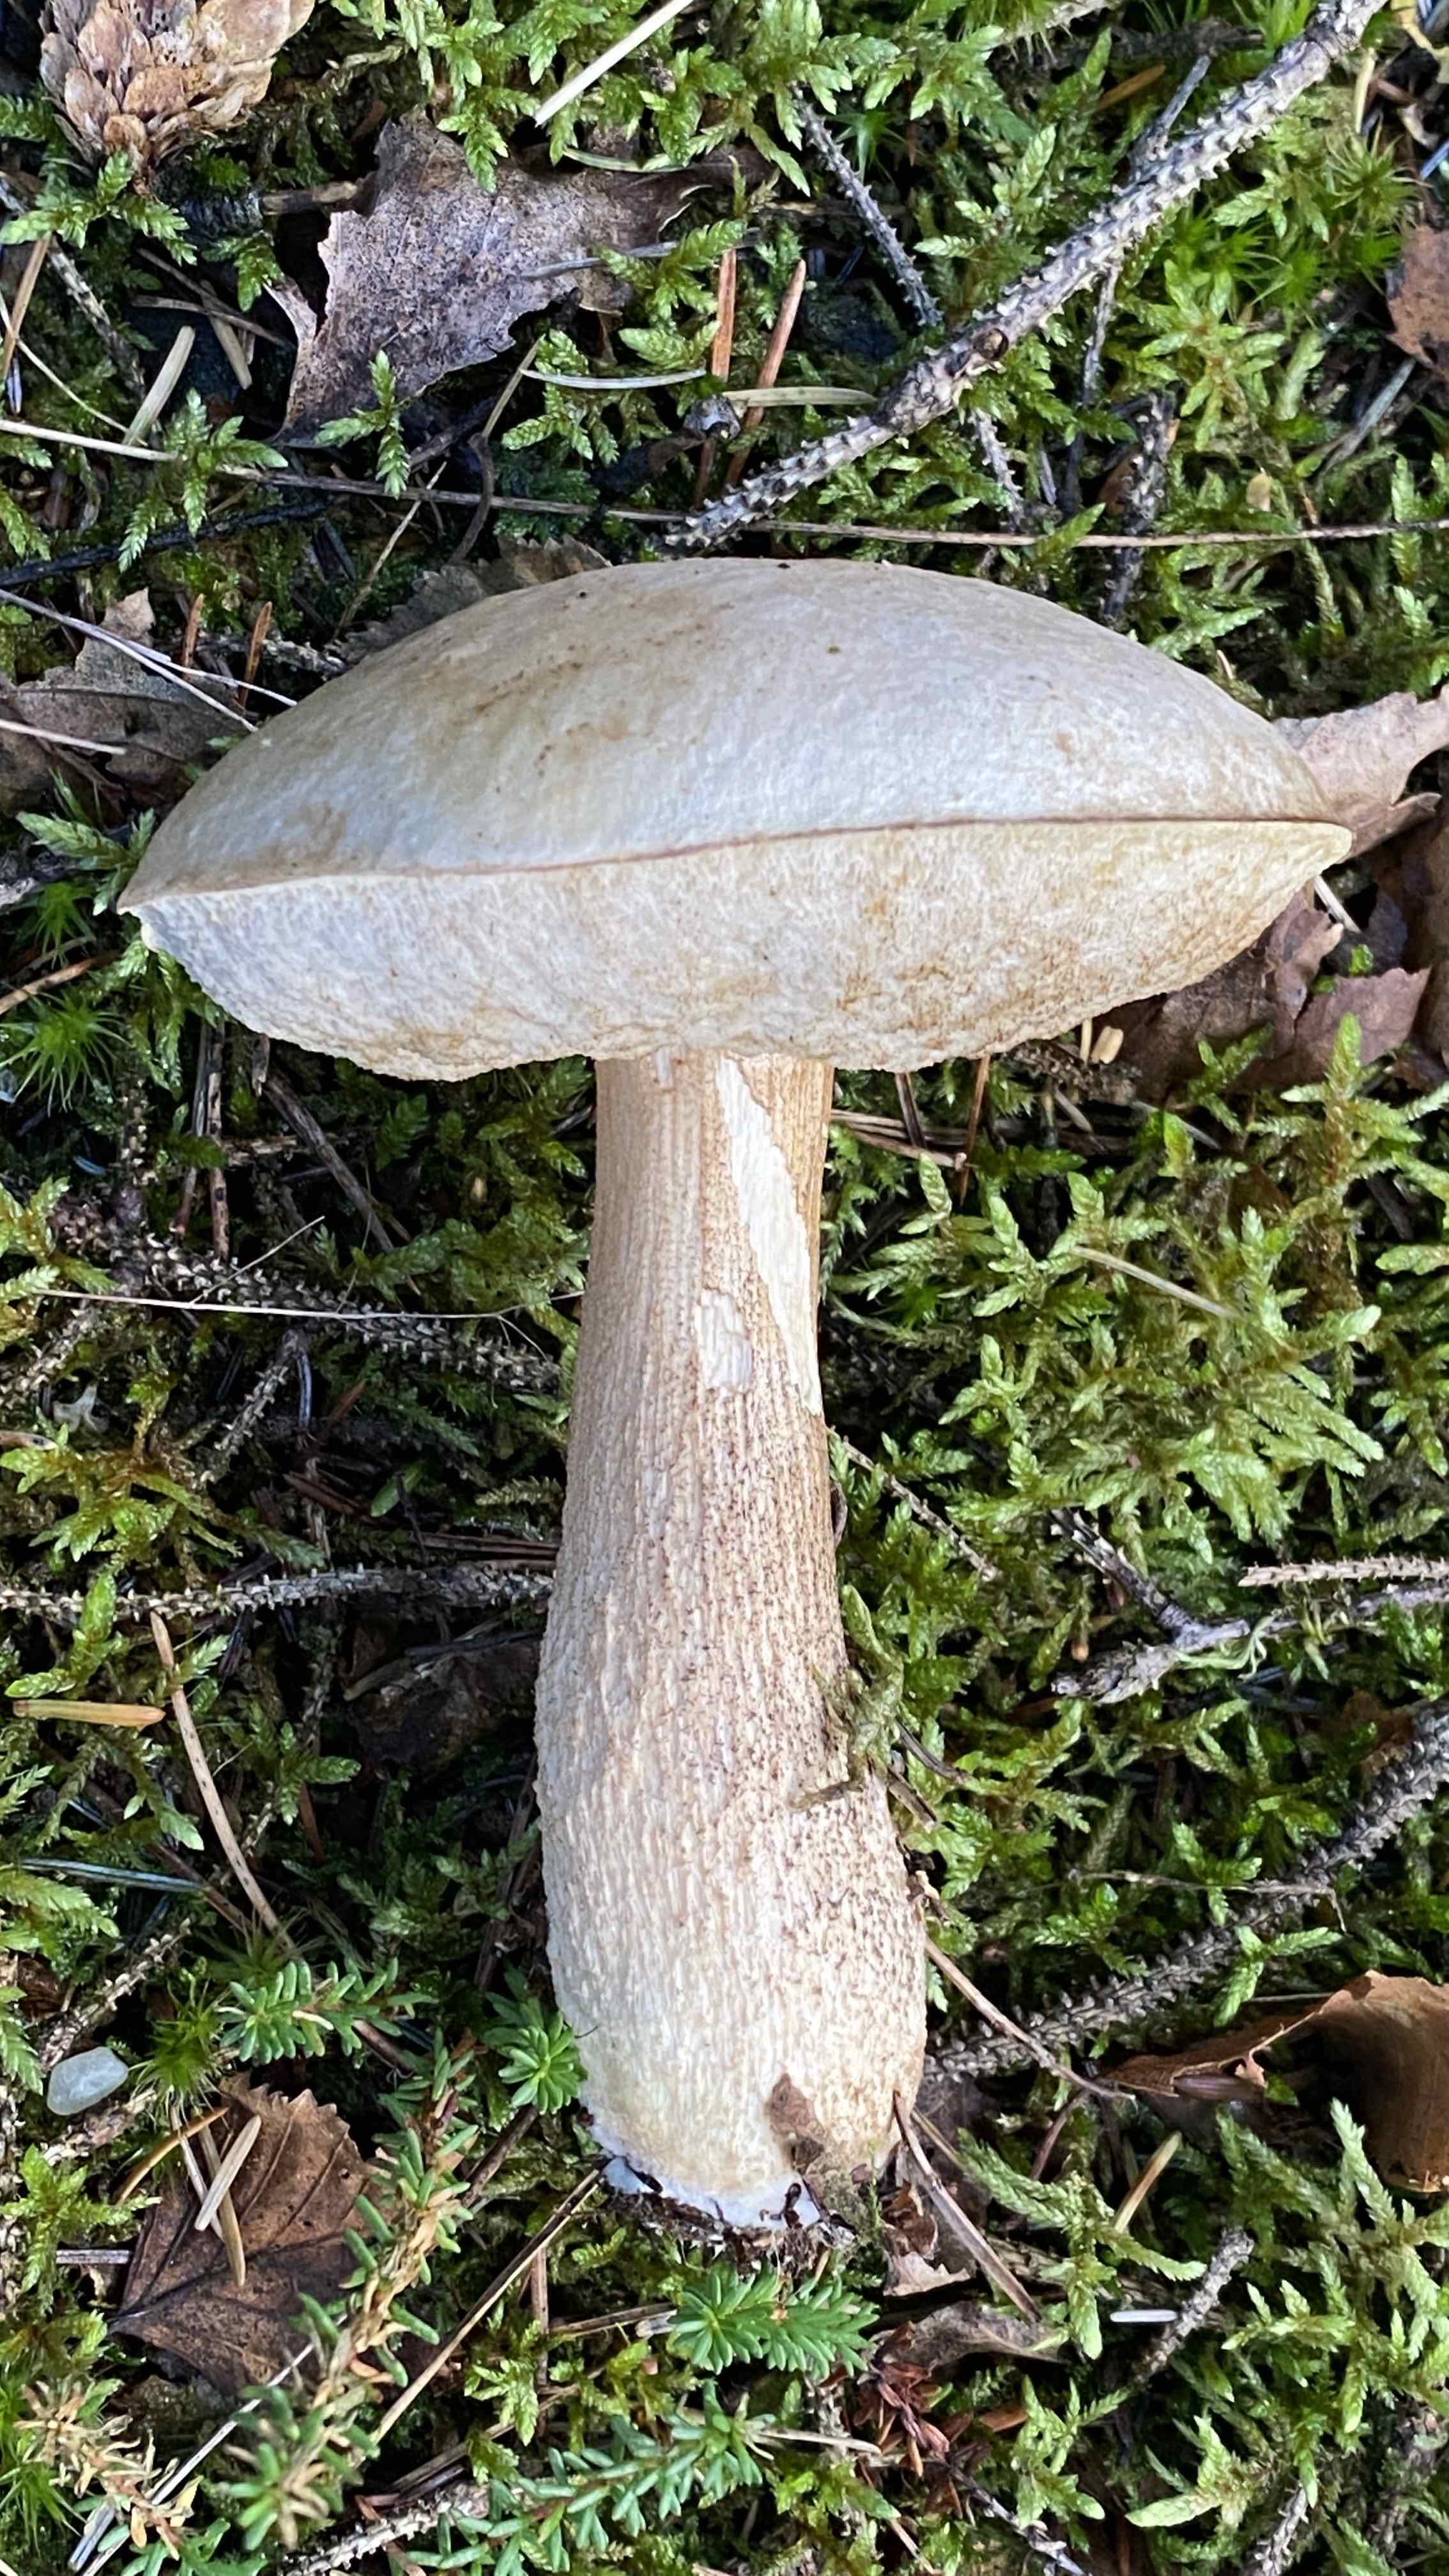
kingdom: Fungi
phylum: Basidiomycota
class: Agaricomycetes
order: Boletales
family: Boletaceae
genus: Leccinum
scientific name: Leccinum scabrum
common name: hvid skælrørhat
